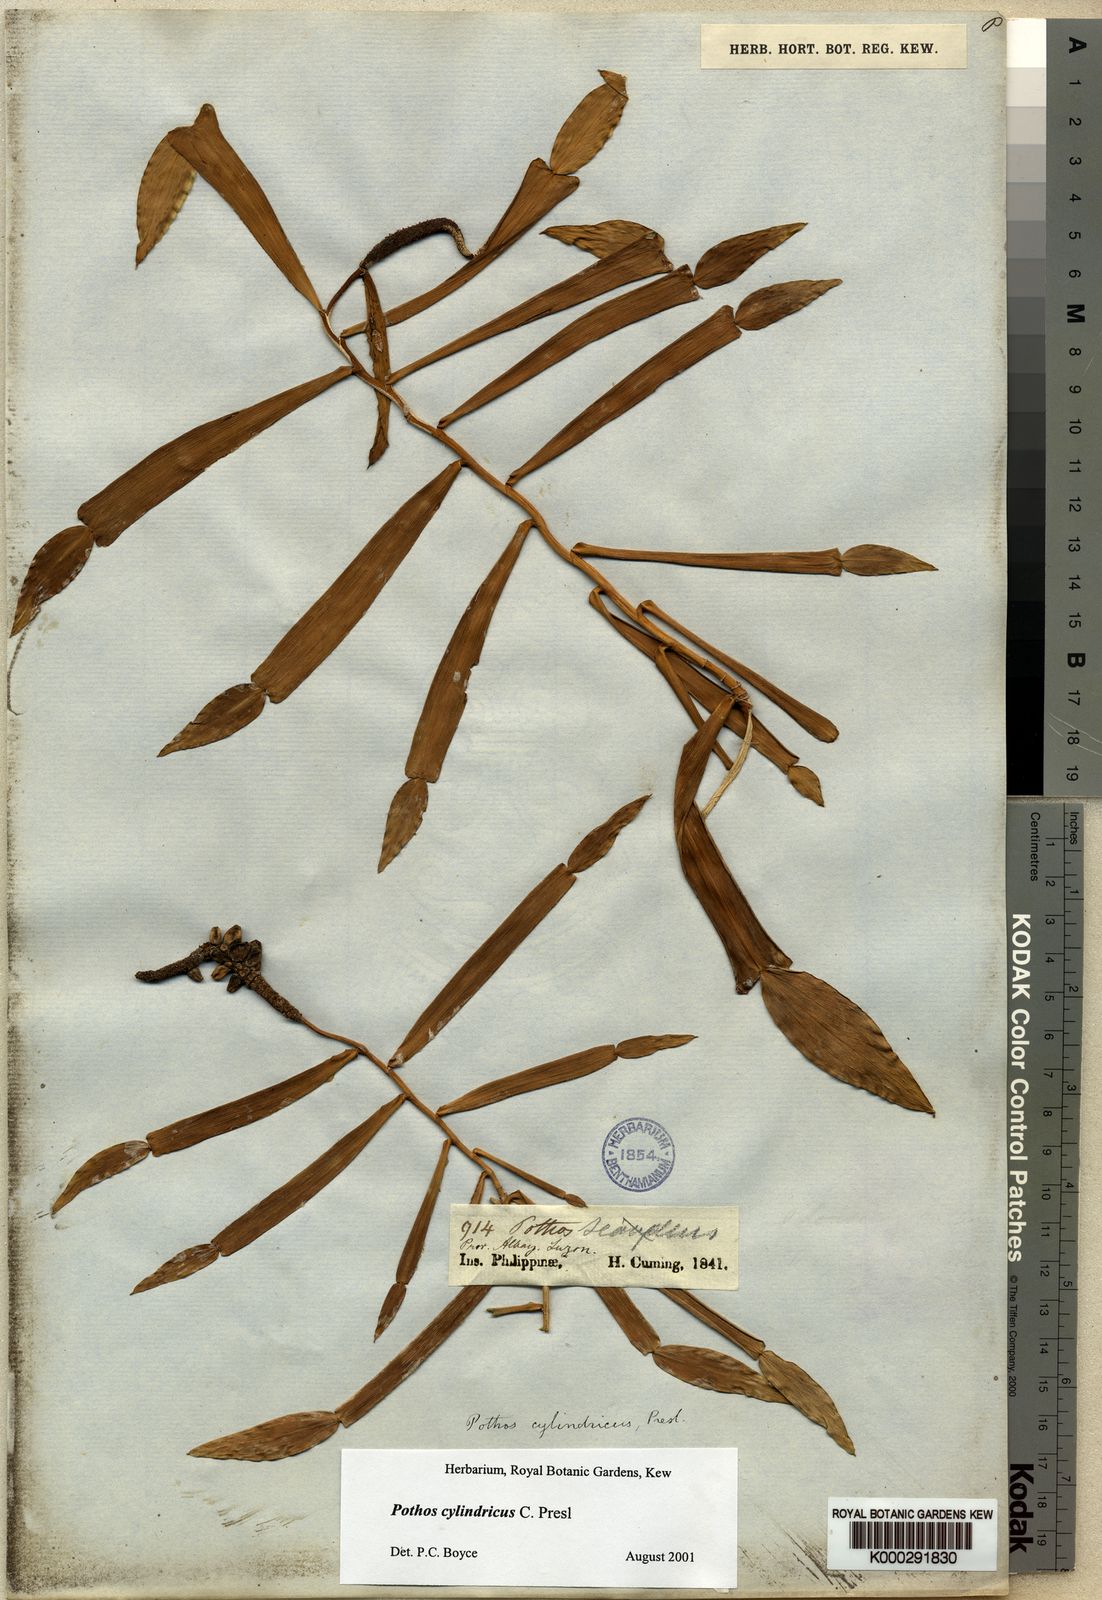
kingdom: Plantae
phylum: Tracheophyta
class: Liliopsida
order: Alismatales
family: Araceae
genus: Pothos
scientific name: Pothos cylindricus
